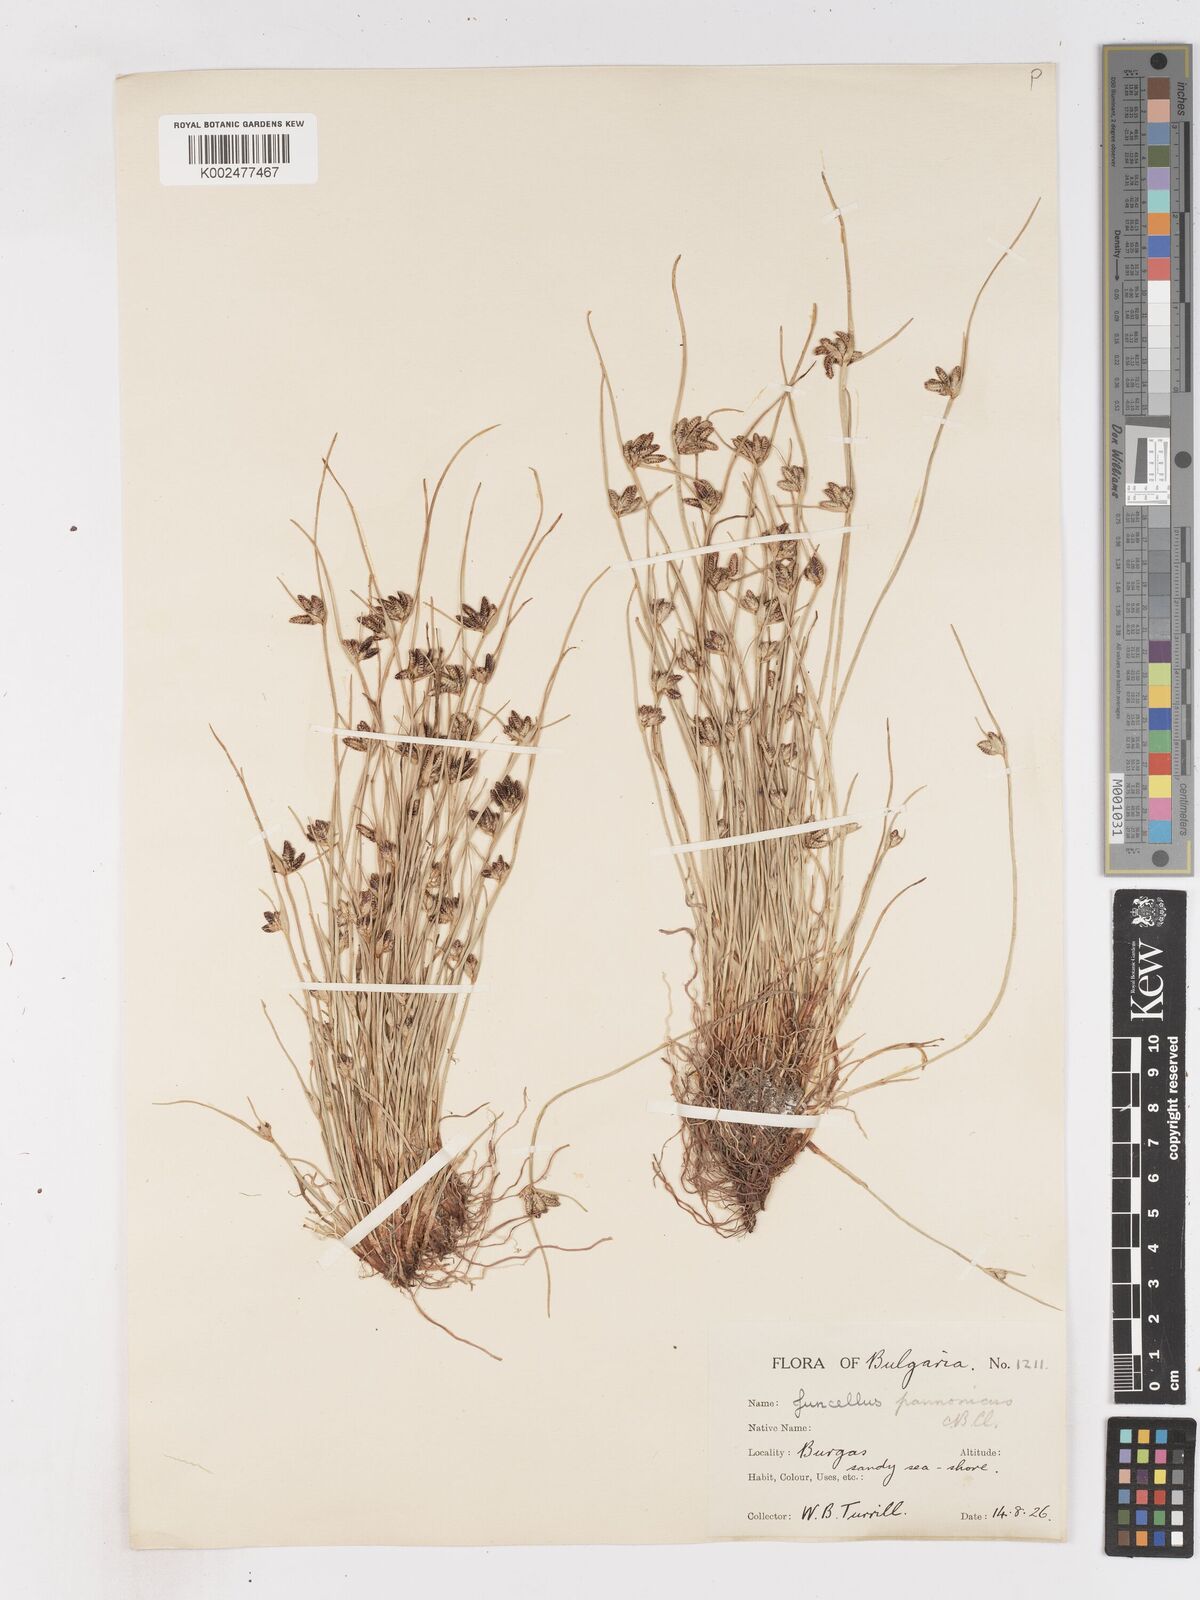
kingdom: Plantae
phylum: Tracheophyta
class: Liliopsida
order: Poales
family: Cyperaceae
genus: Cyperus
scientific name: Cyperus pannonicus
